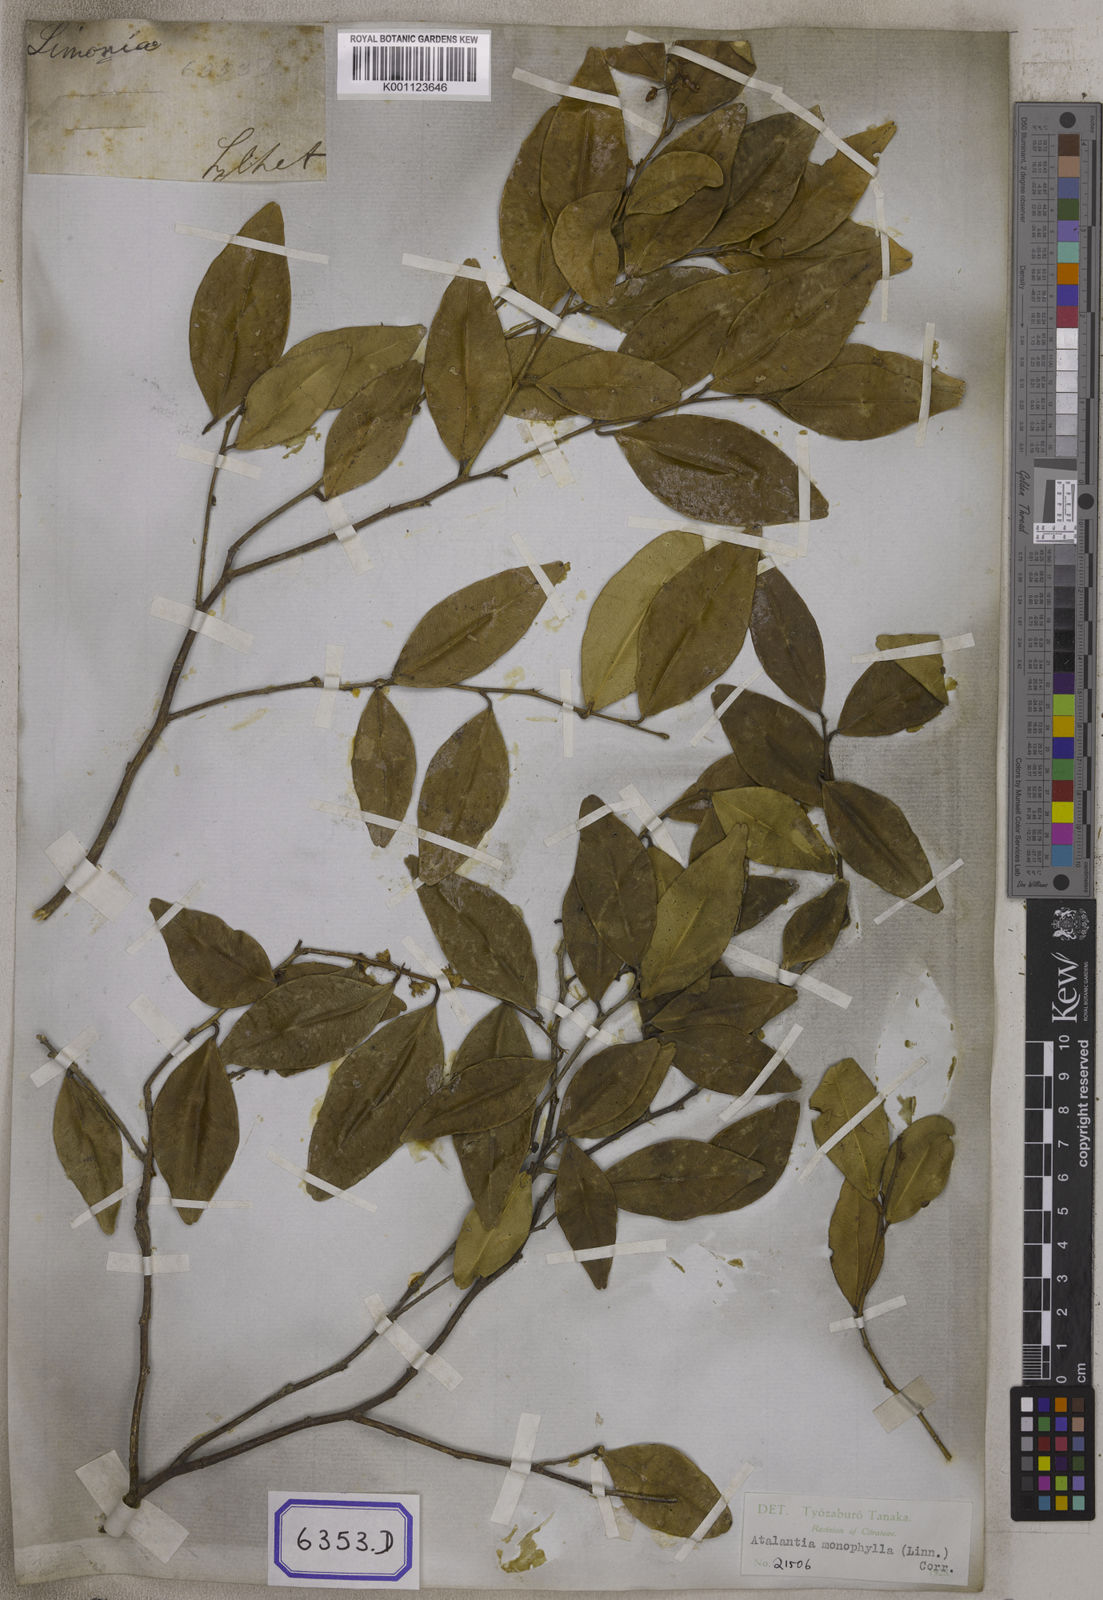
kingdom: Plantae
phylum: Tracheophyta
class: Magnoliopsida
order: Sapindales
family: Rutaceae
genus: Atalantia
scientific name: Atalantia monophylla
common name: Indian-atalantia
